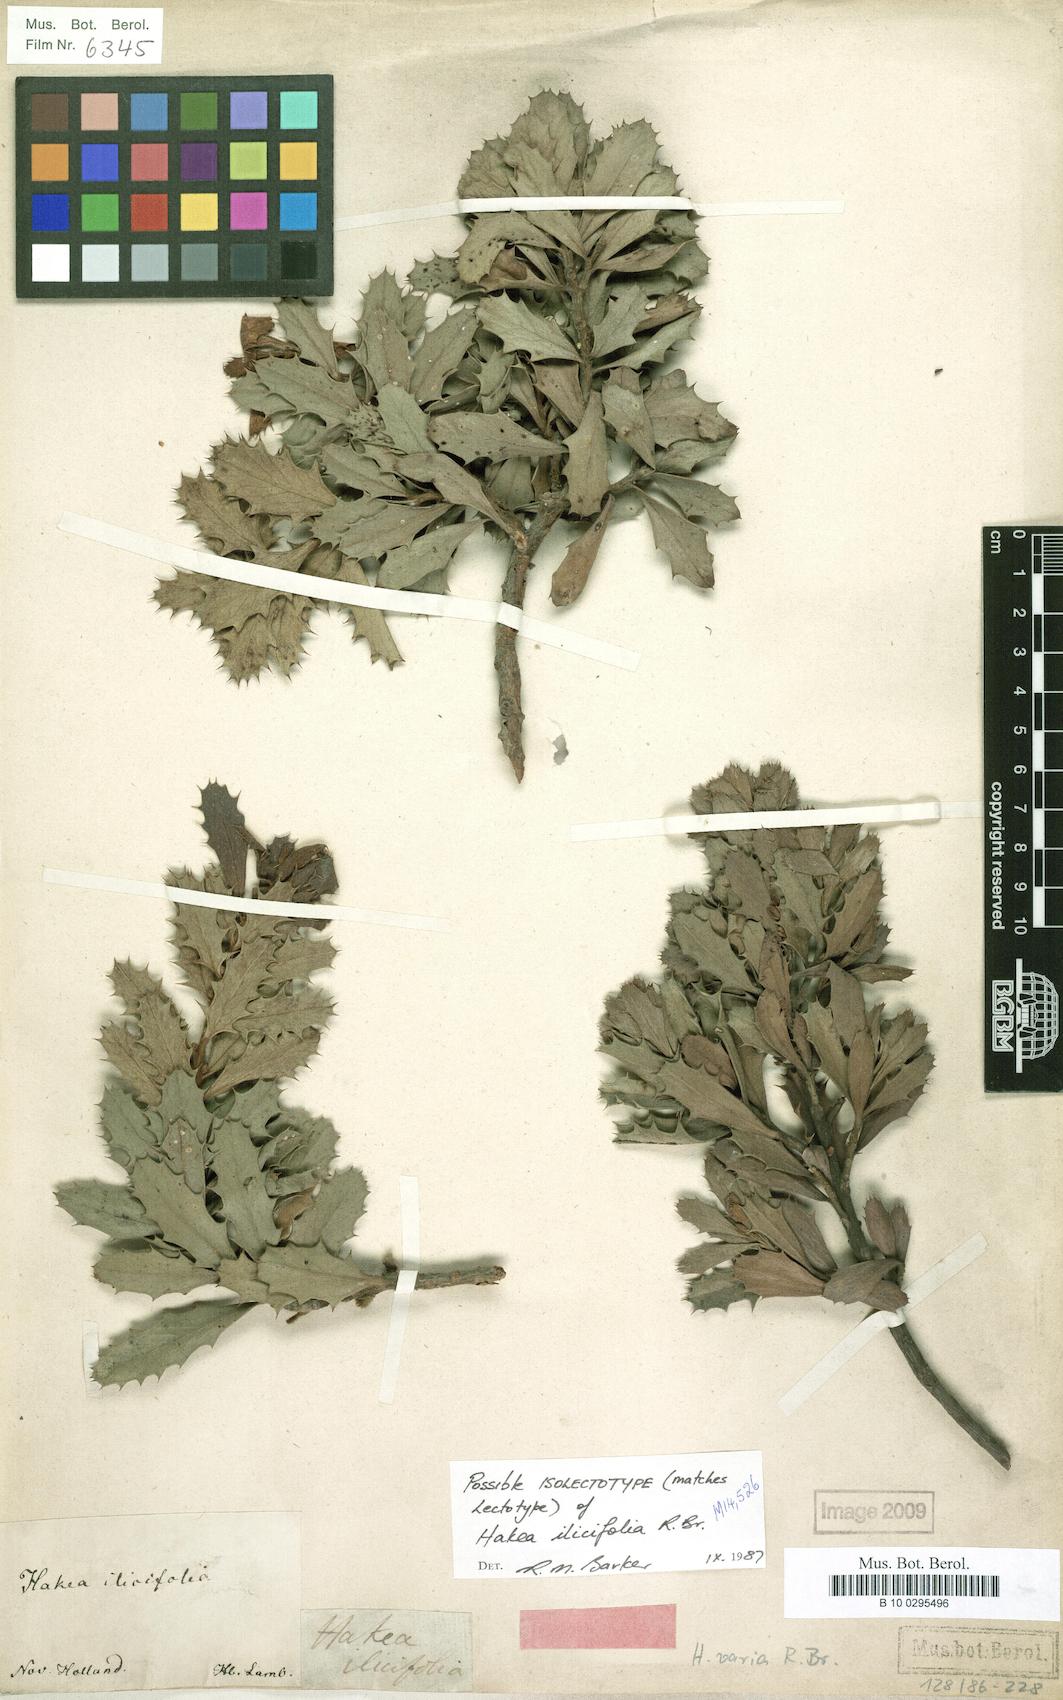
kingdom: Plantae
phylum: Tracheophyta
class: Magnoliopsida
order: Proteales
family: Proteaceae
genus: Hakea
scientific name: Hakea varia
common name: Variable-leaf hakea
